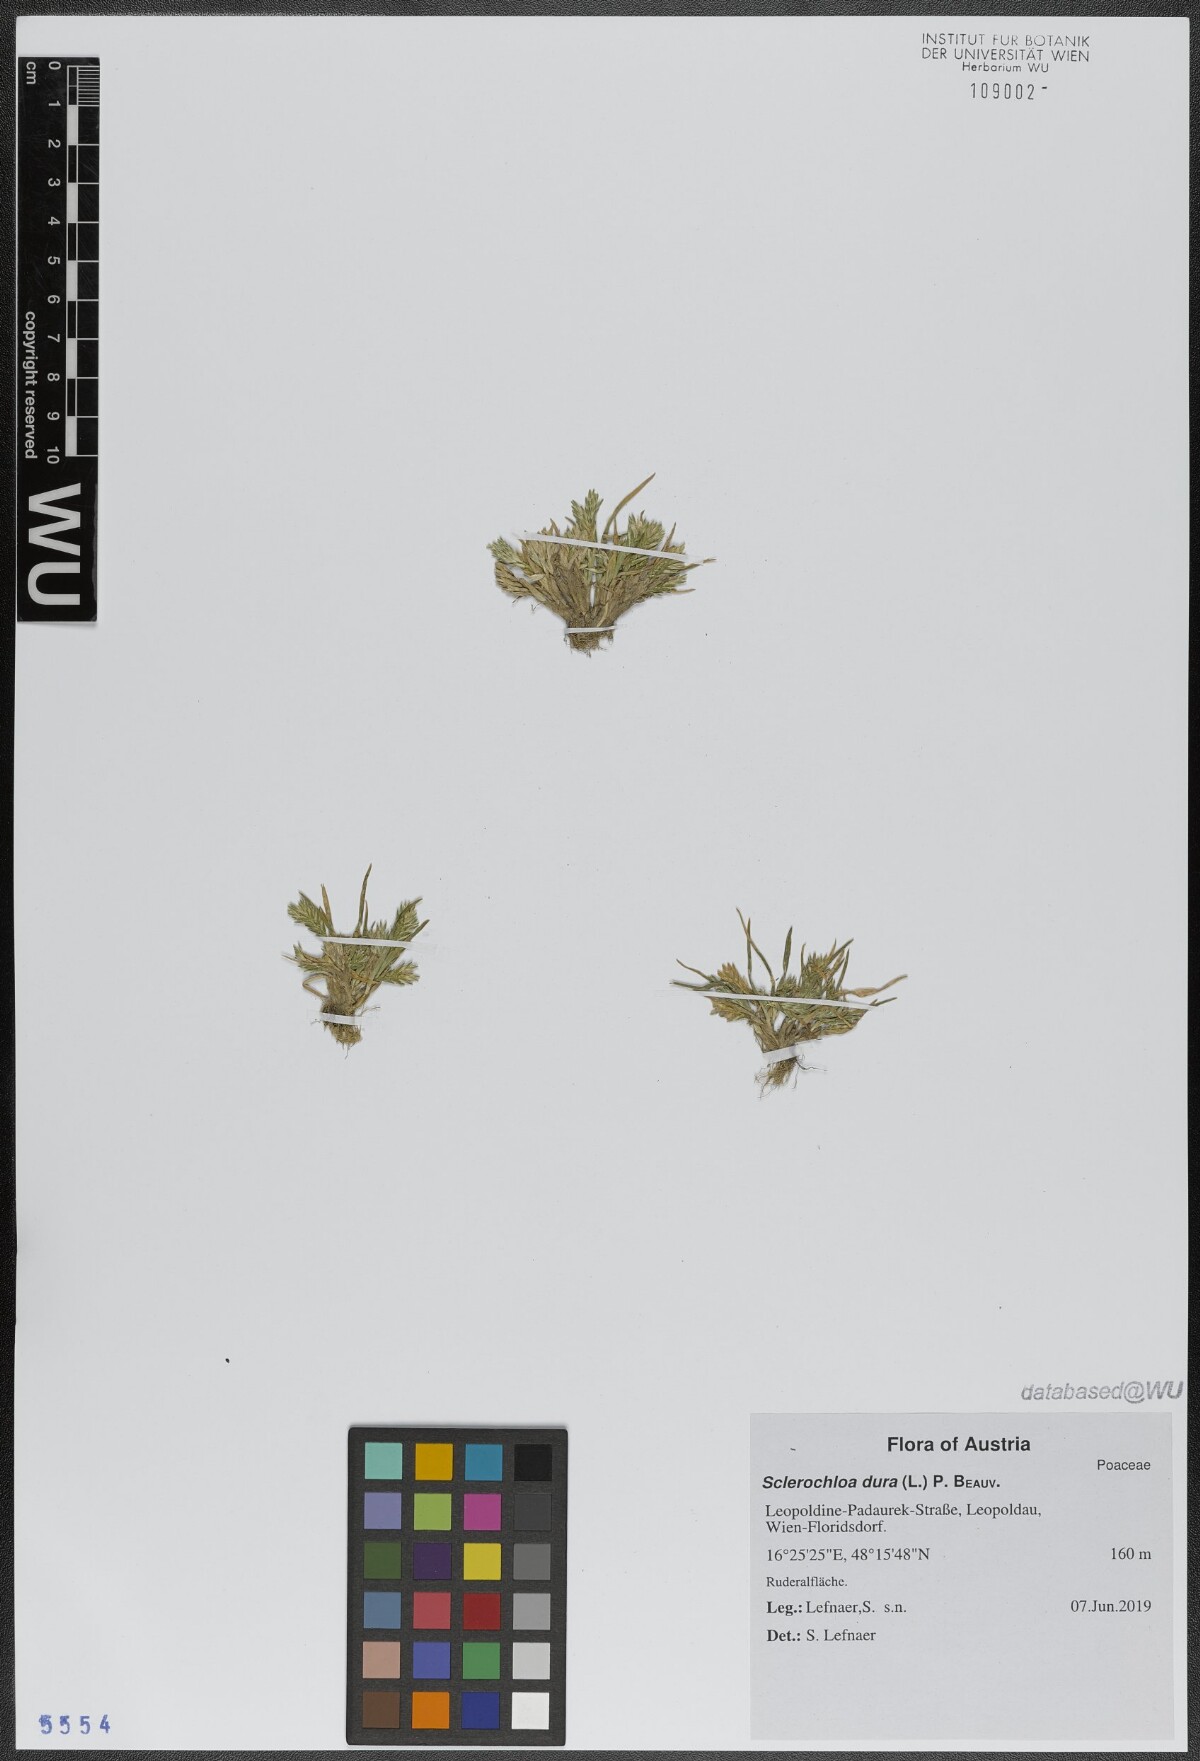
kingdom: Plantae
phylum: Tracheophyta
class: Liliopsida
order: Poales
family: Poaceae
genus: Sclerochloa
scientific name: Sclerochloa dura
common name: Common hardgrass
